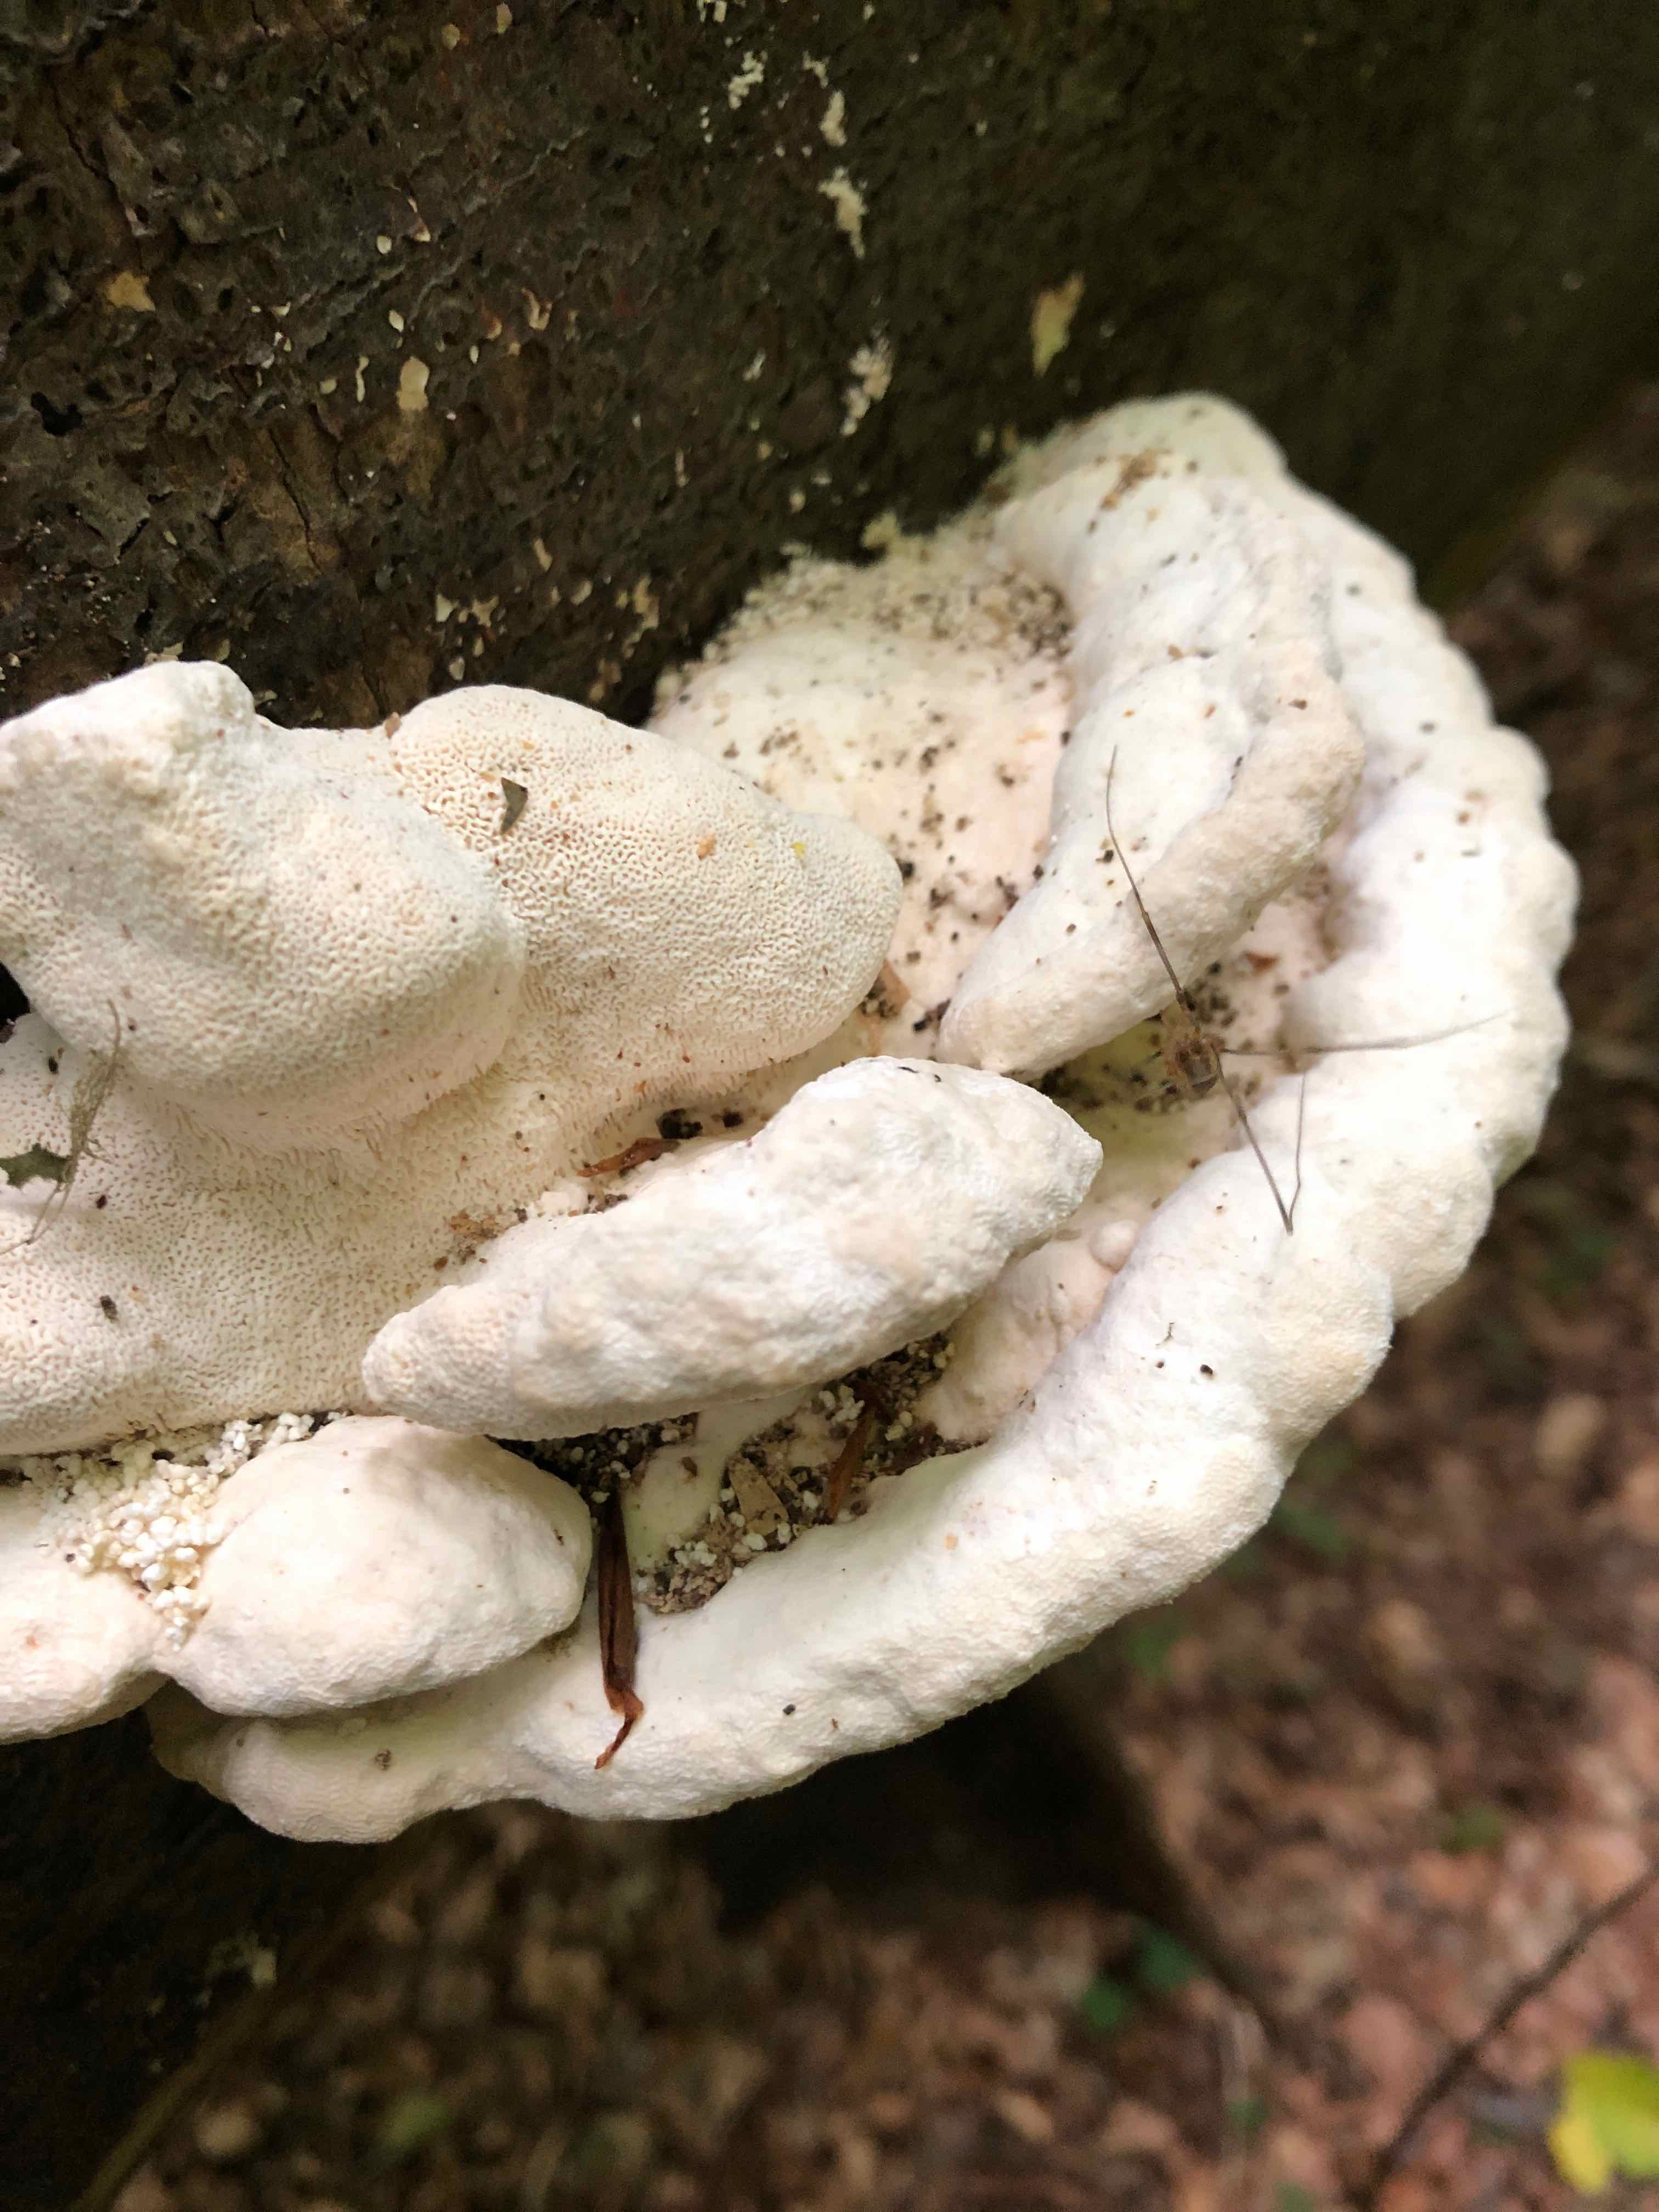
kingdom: Fungi
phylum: Basidiomycota
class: Agaricomycetes
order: Polyporales
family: Polyporaceae
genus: Trametes
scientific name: Trametes gibbosa
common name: puklet læderporesvamp
